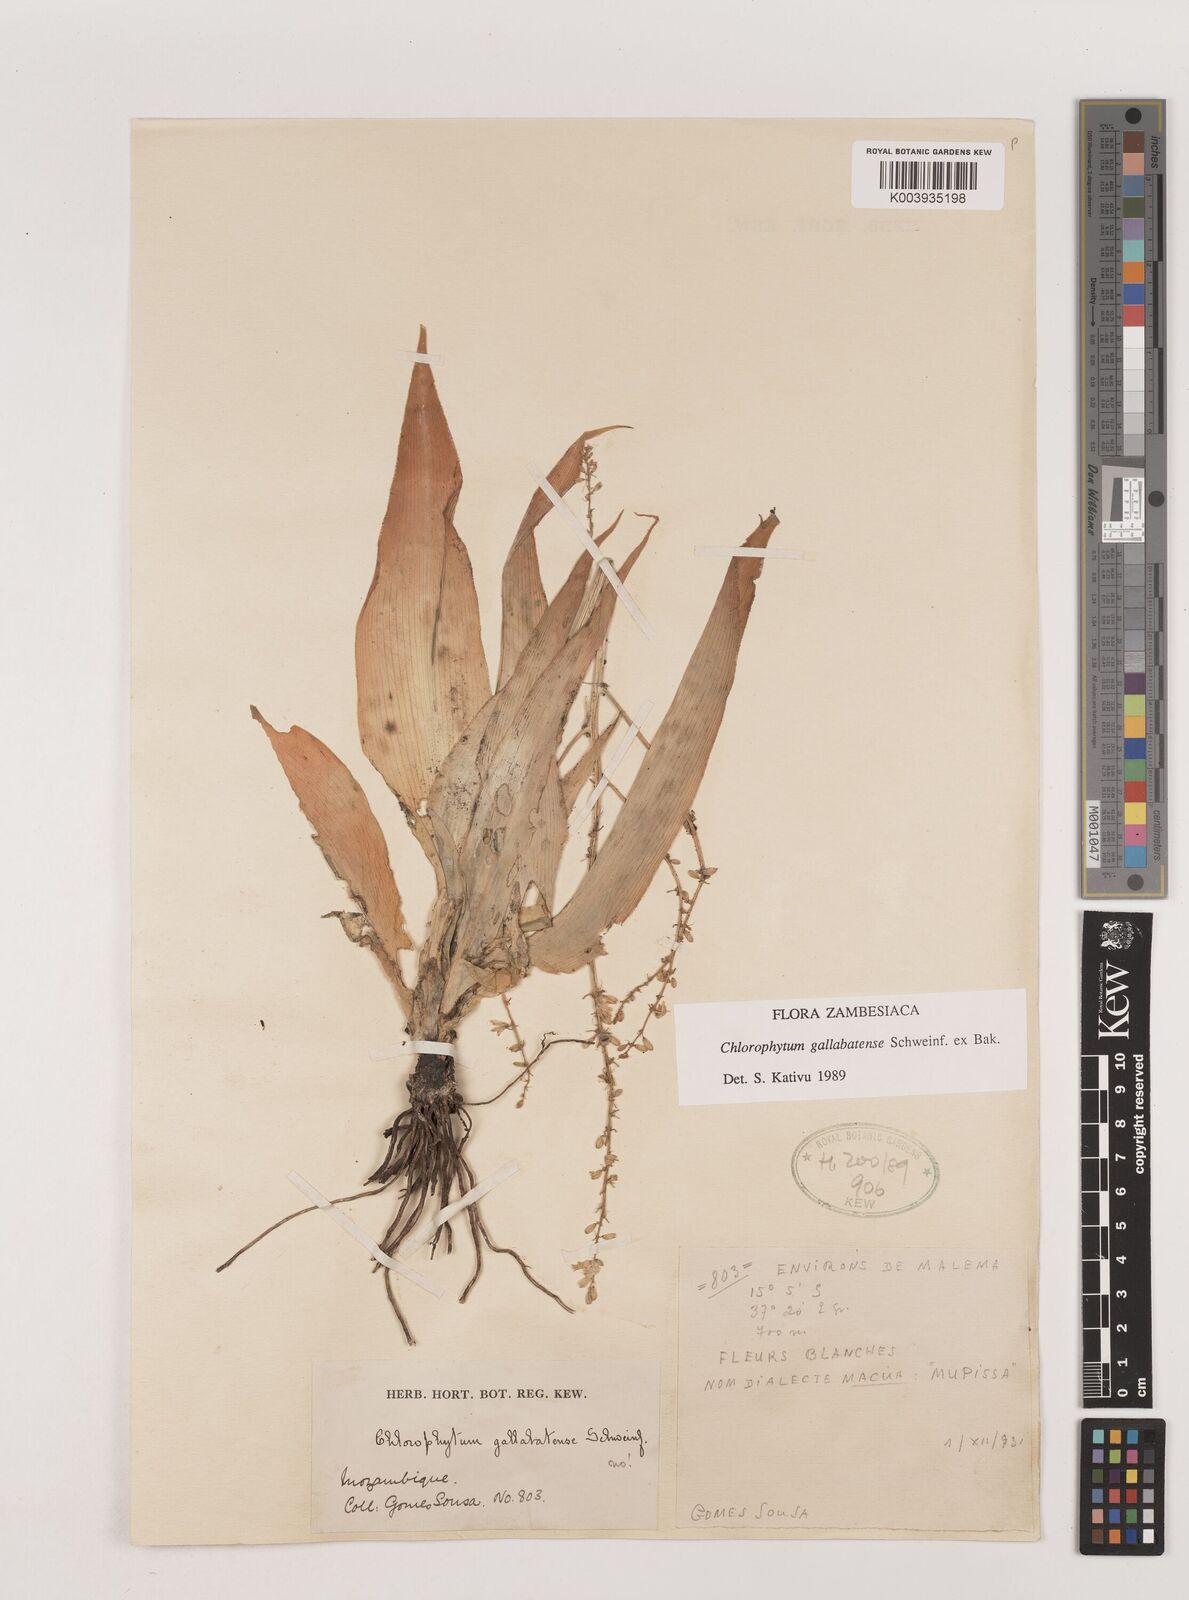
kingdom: Plantae
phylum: Tracheophyta
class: Liliopsida
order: Asparagales
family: Asparagaceae
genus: Chlorophytum
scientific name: Chlorophytum gallabatense
